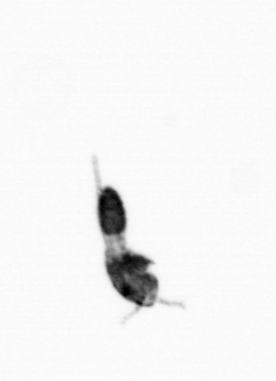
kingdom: Animalia
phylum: Arthropoda
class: Copepoda
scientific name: Copepoda
